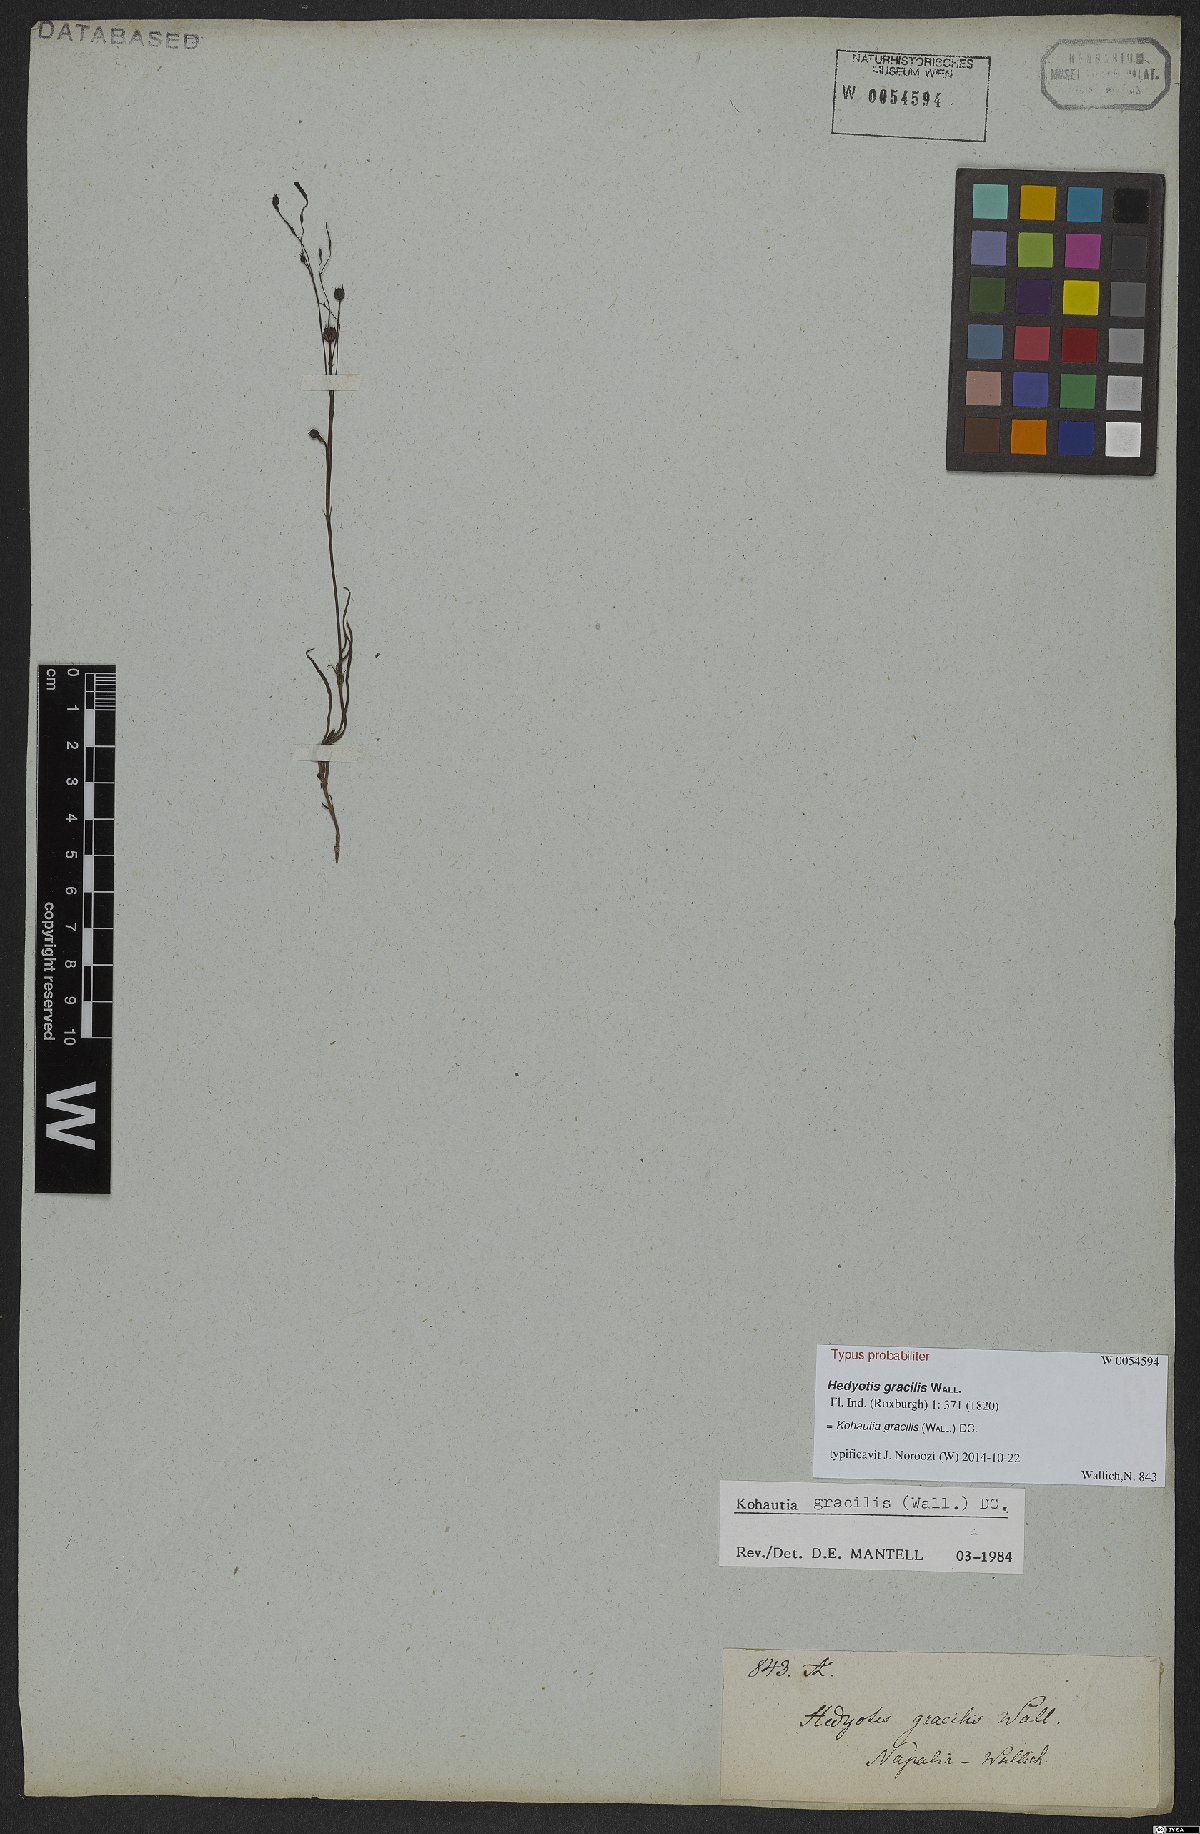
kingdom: Plantae
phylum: Tracheophyta
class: Magnoliopsida
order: Gentianales
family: Rubiaceae
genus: Kohautia
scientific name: Kohautia gracilis
